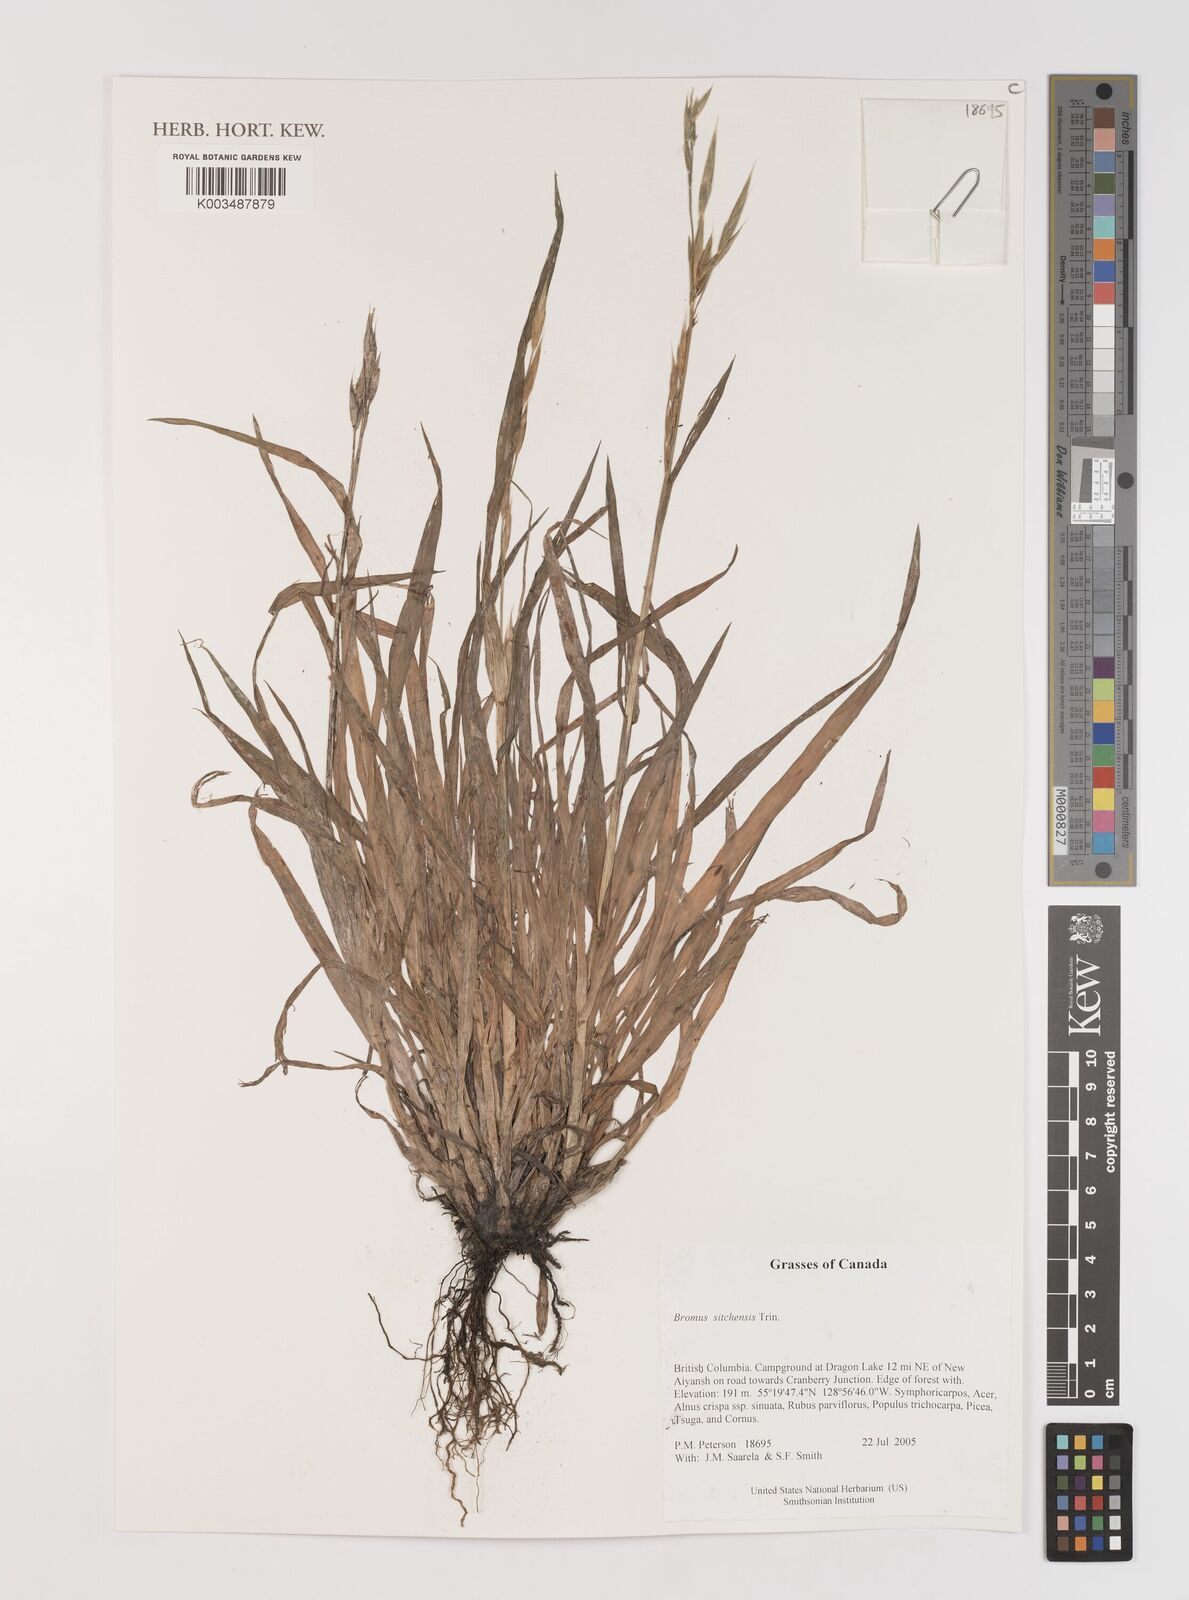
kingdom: Plantae
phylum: Tracheophyta
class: Liliopsida
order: Poales
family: Poaceae
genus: Bromus
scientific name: Bromus sitchensis
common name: Sitka brome
